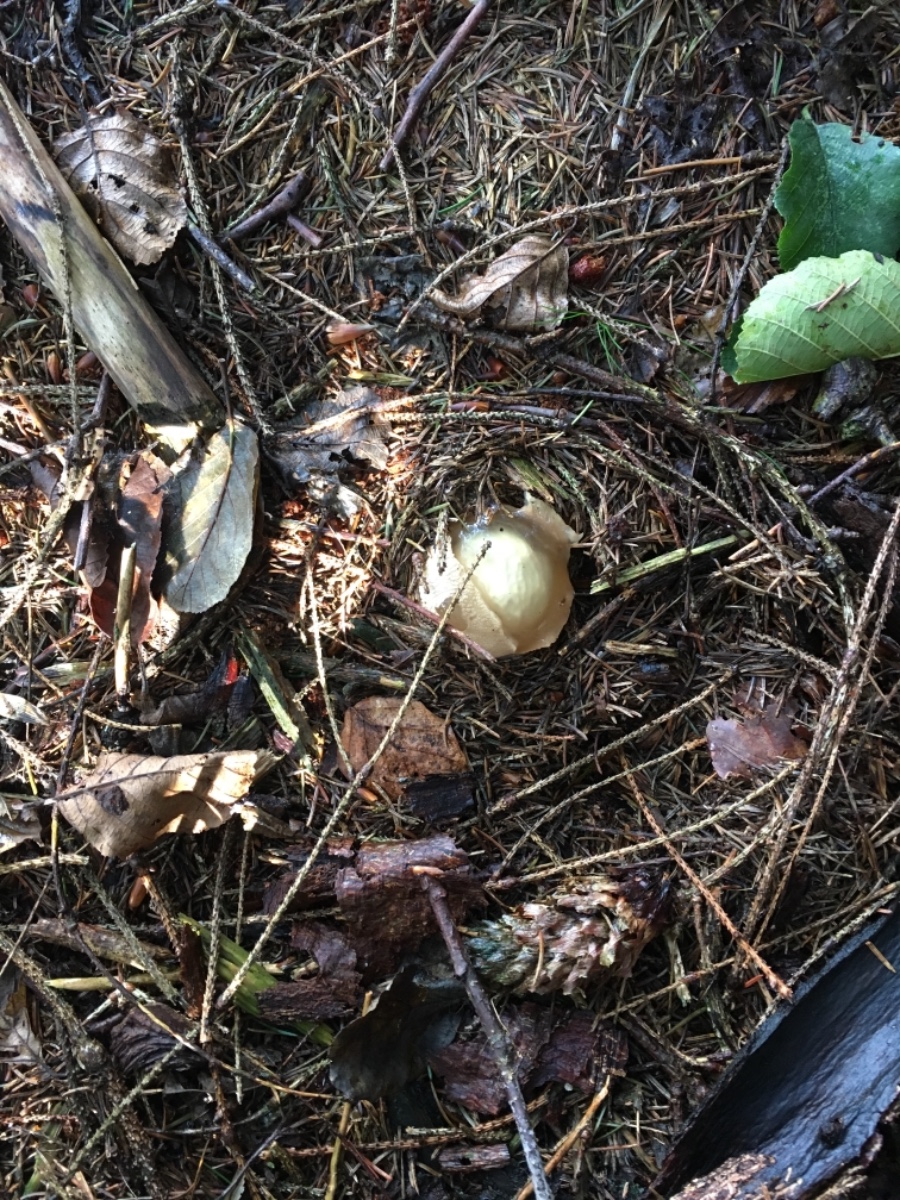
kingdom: Fungi
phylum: Basidiomycota
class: Agaricomycetes
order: Phallales
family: Phallaceae
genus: Phallus
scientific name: Phallus impudicus
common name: almindelig stinksvamp
